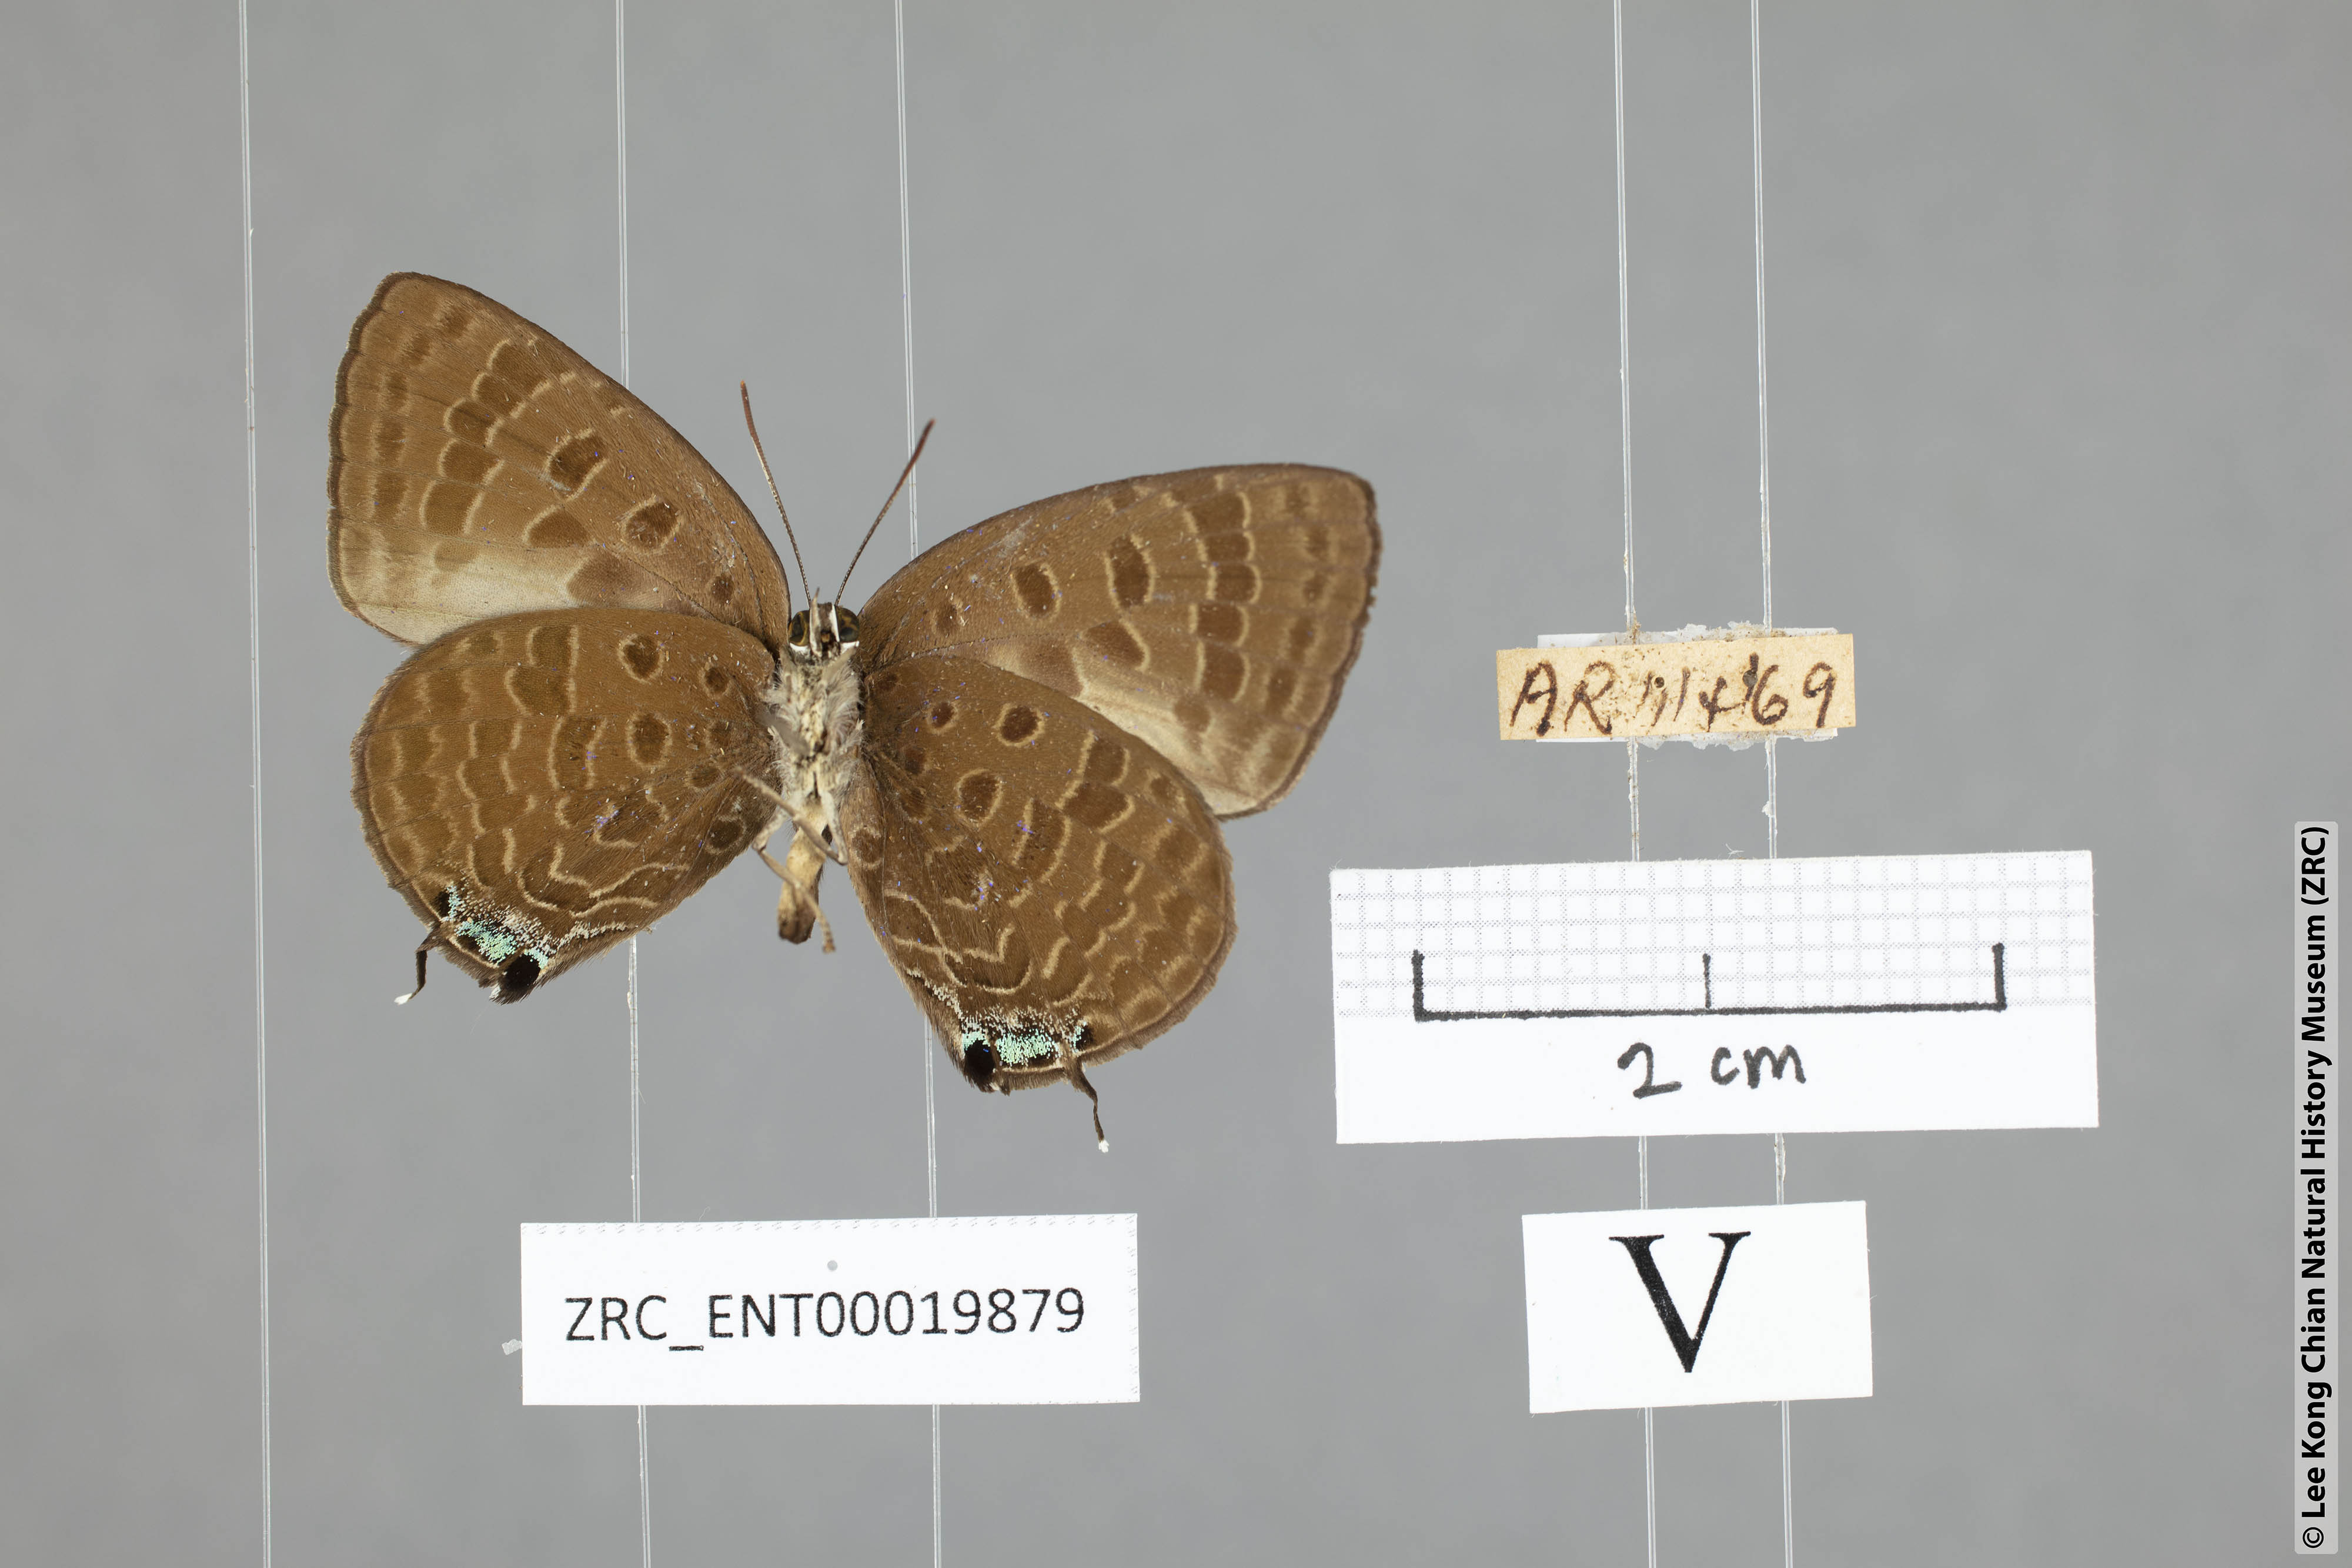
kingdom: Animalia
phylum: Arthropoda
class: Insecta
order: Lepidoptera
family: Lycaenidae
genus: Arhopala
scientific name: Arhopala sublustris
